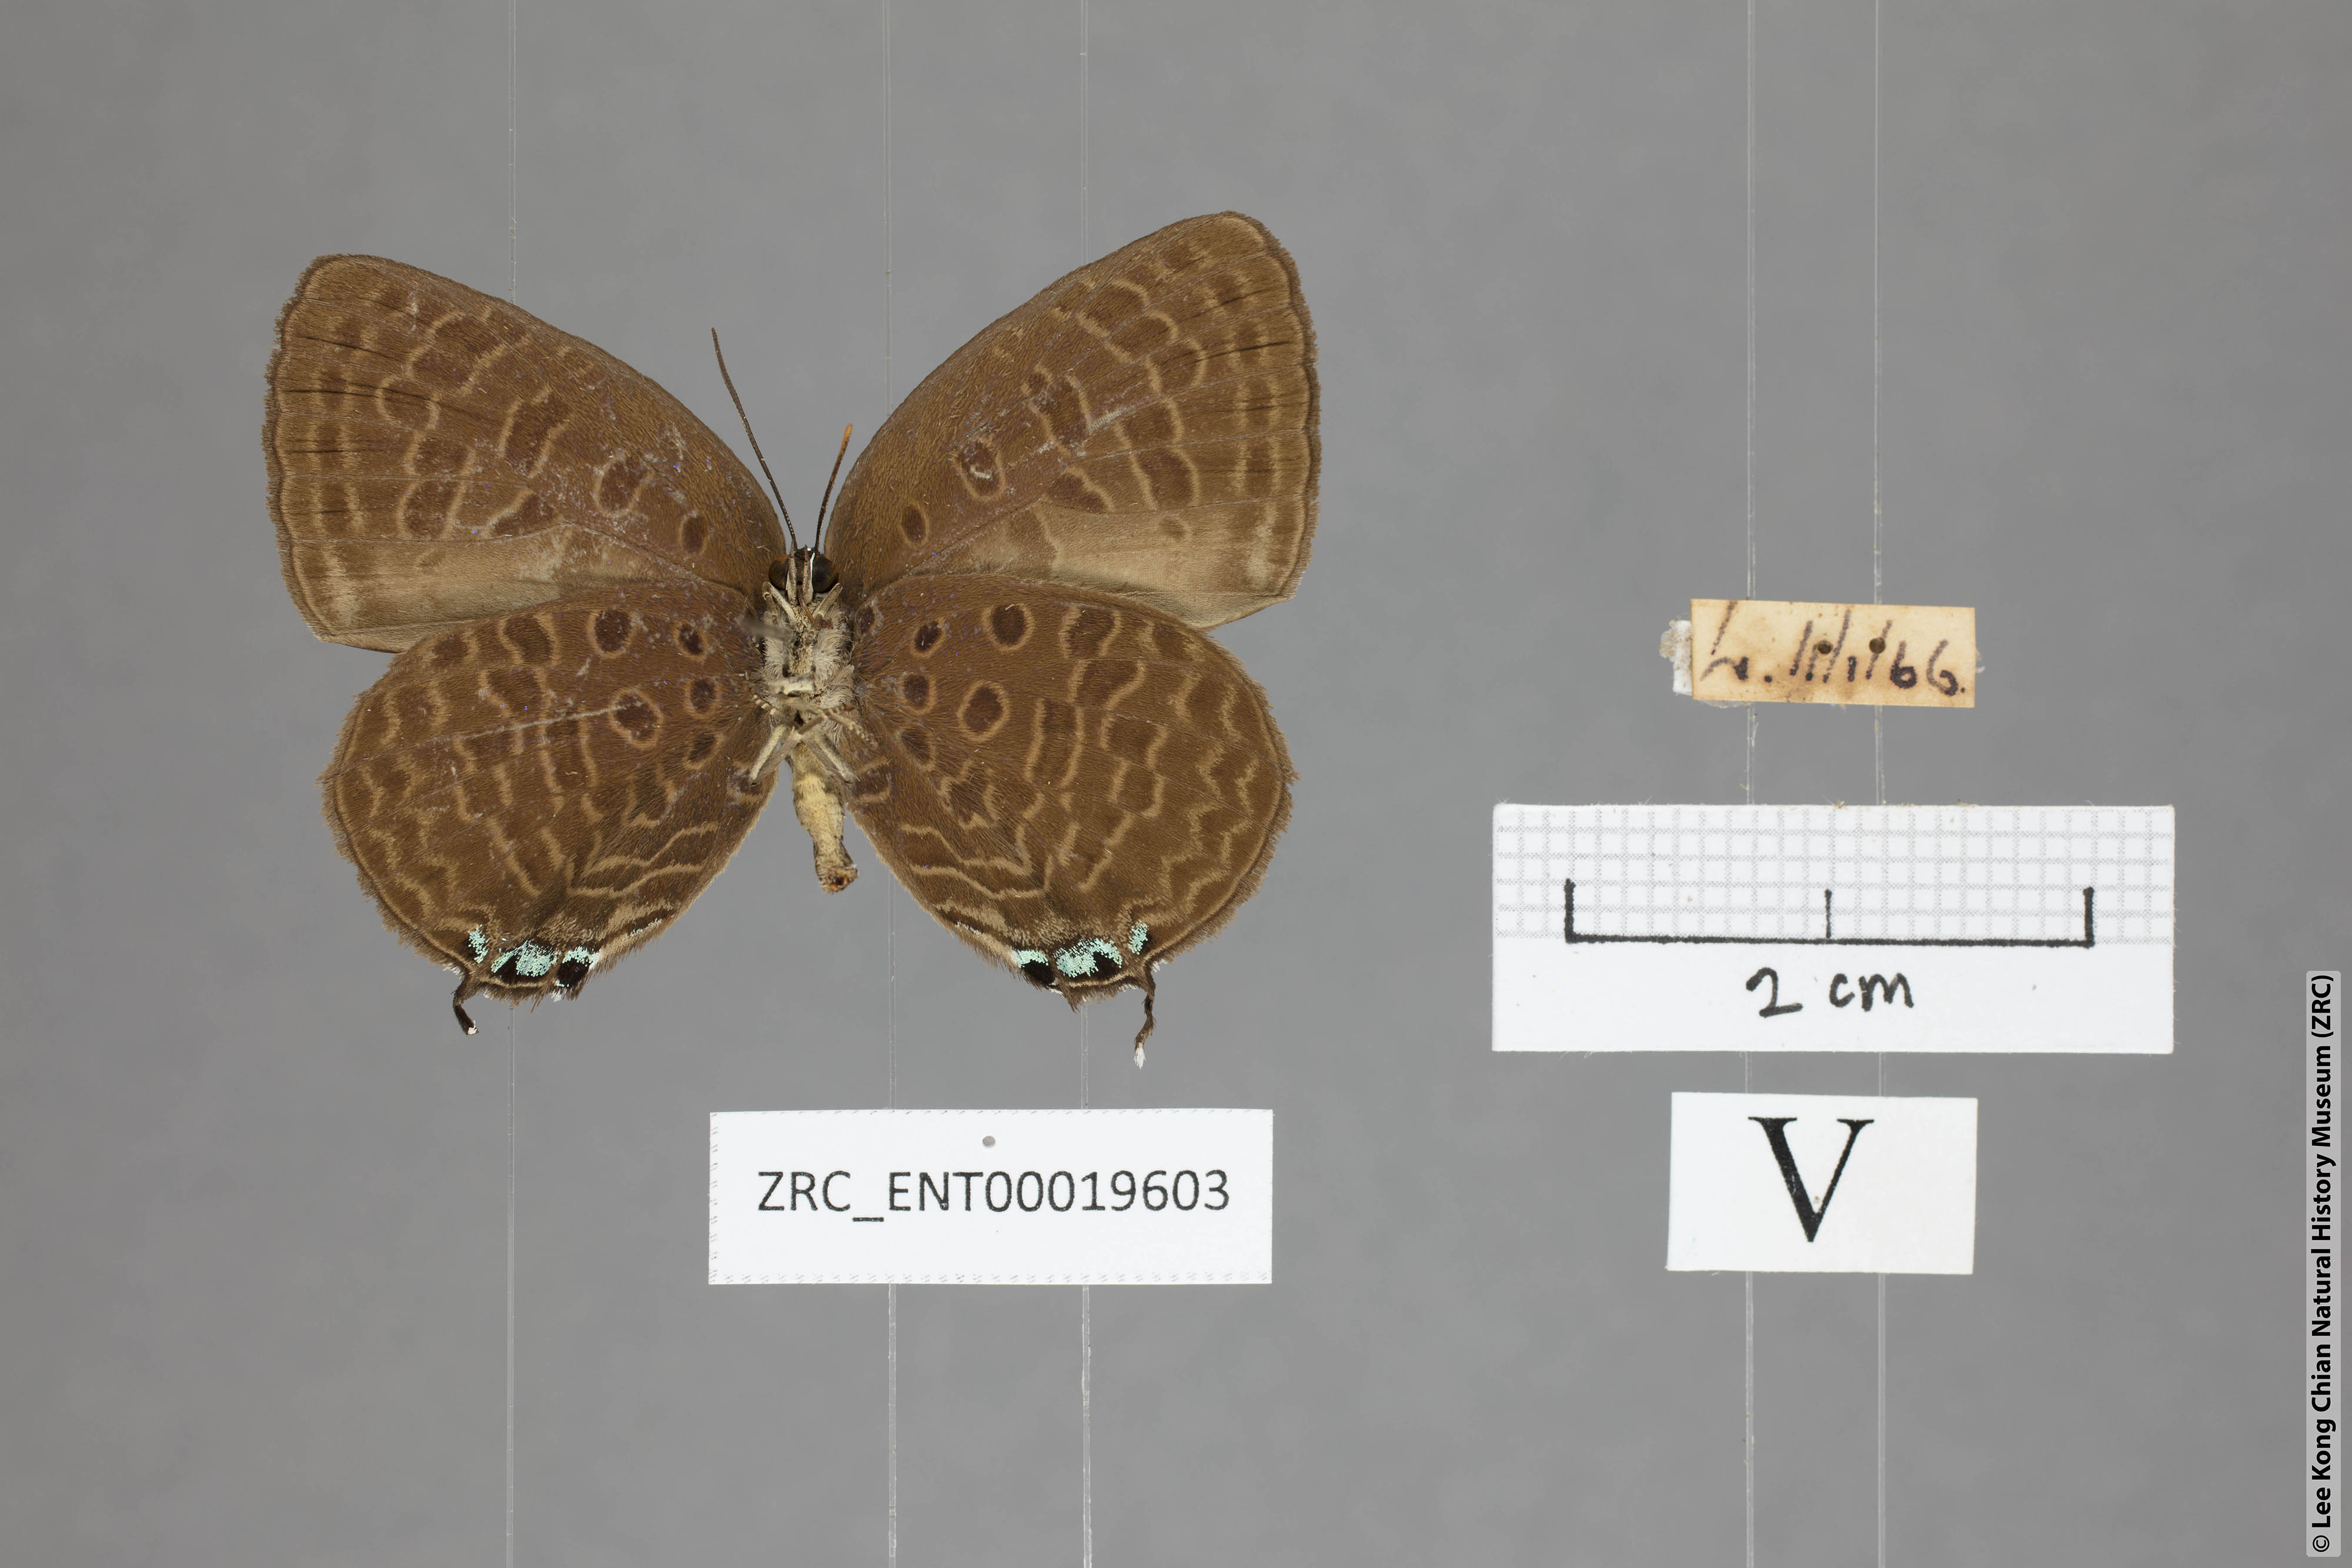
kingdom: Animalia
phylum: Arthropoda
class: Insecta
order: Lepidoptera
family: Lycaenidae
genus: Arhopala
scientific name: Arhopala atosia
